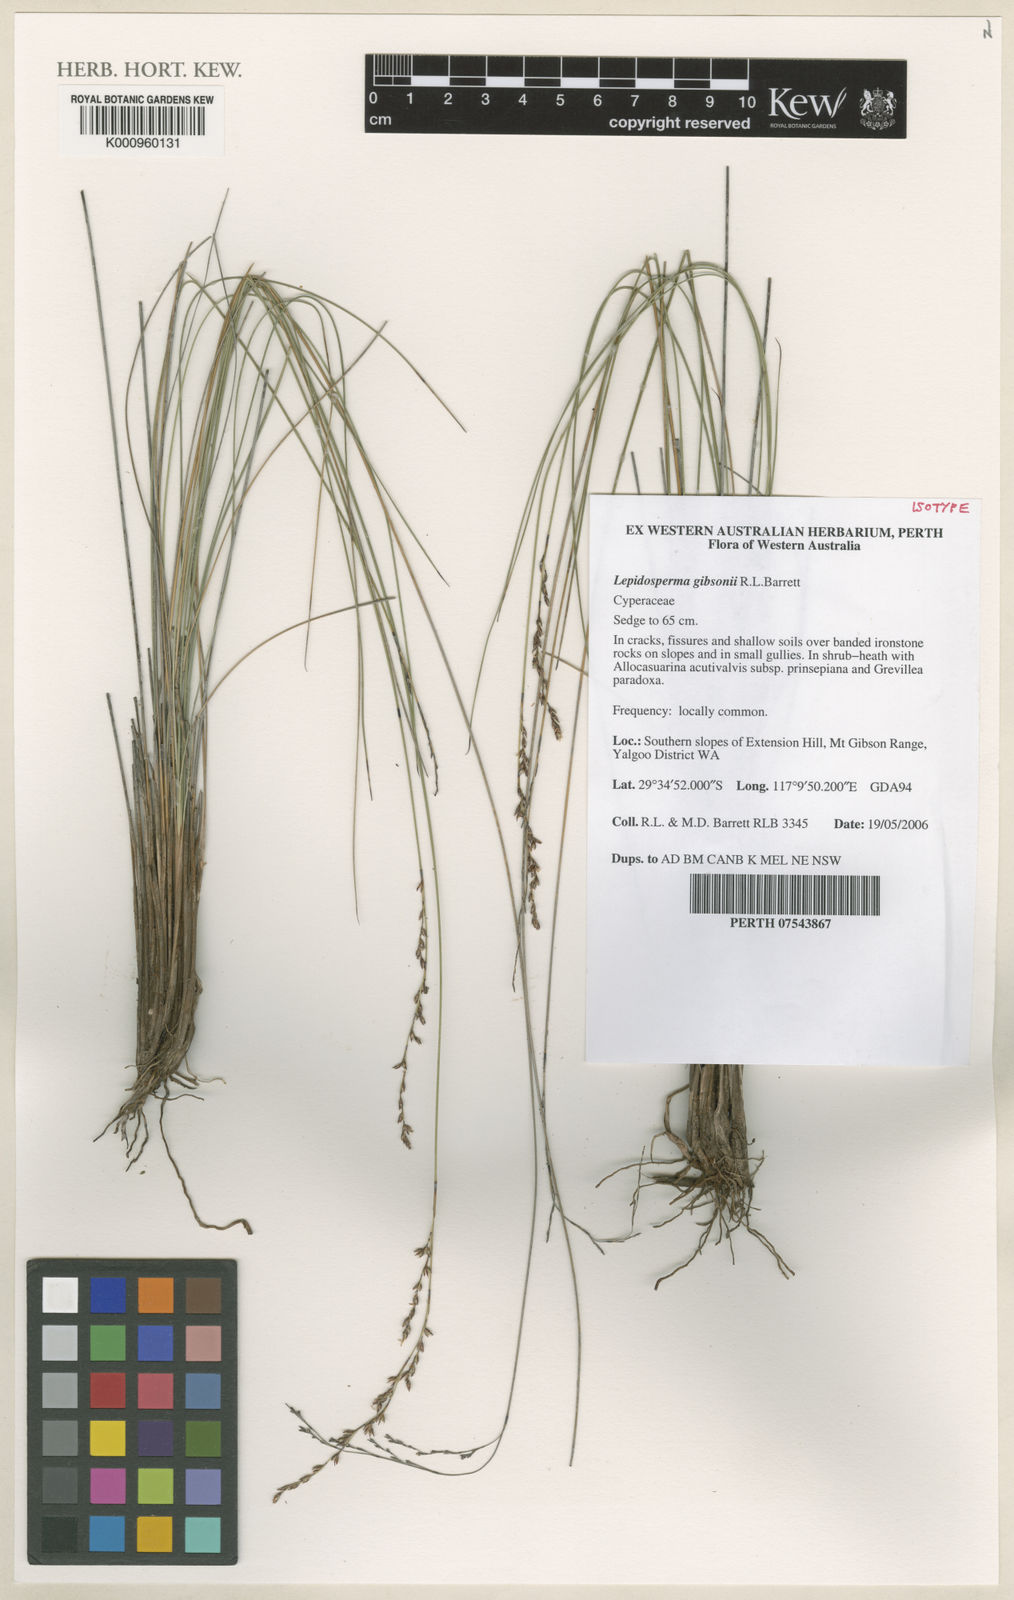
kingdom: Plantae
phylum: Tracheophyta
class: Liliopsida
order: Poales
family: Cyperaceae
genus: Lepidosperma
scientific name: Lepidosperma gibsonii
